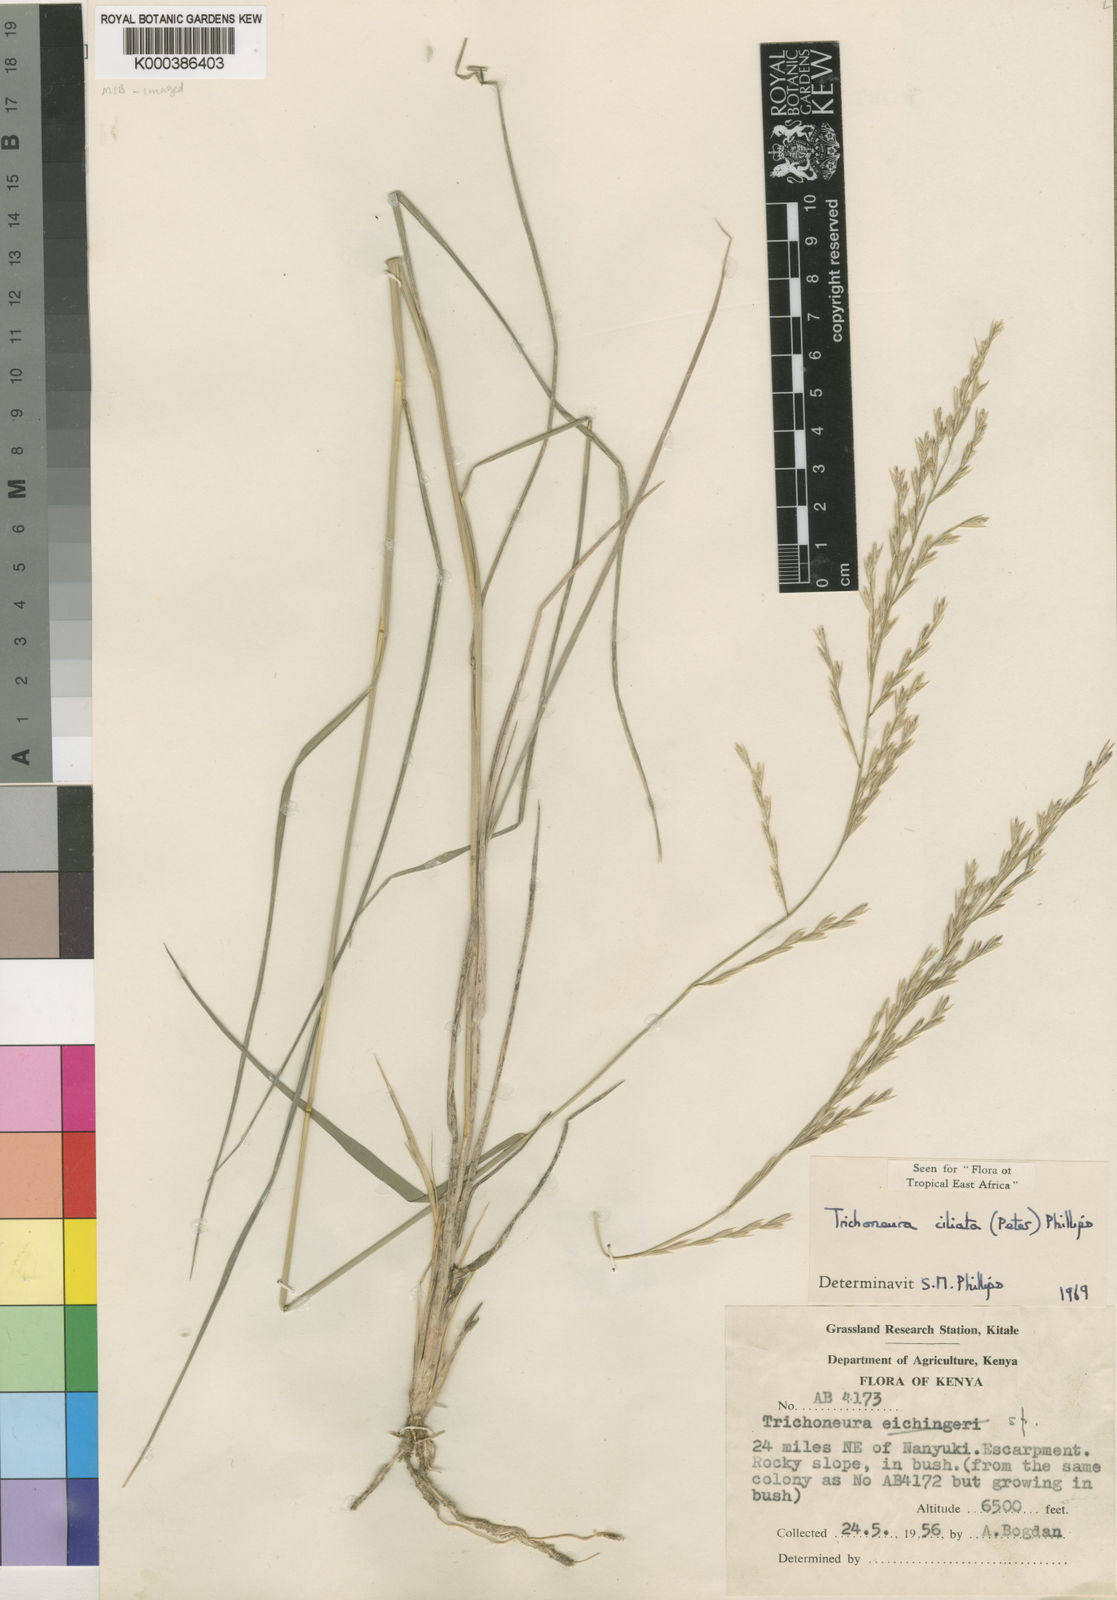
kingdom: Plantae
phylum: Tracheophyta
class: Liliopsida
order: Poales
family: Poaceae
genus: Trichoneura
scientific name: Trichoneura ciliata
